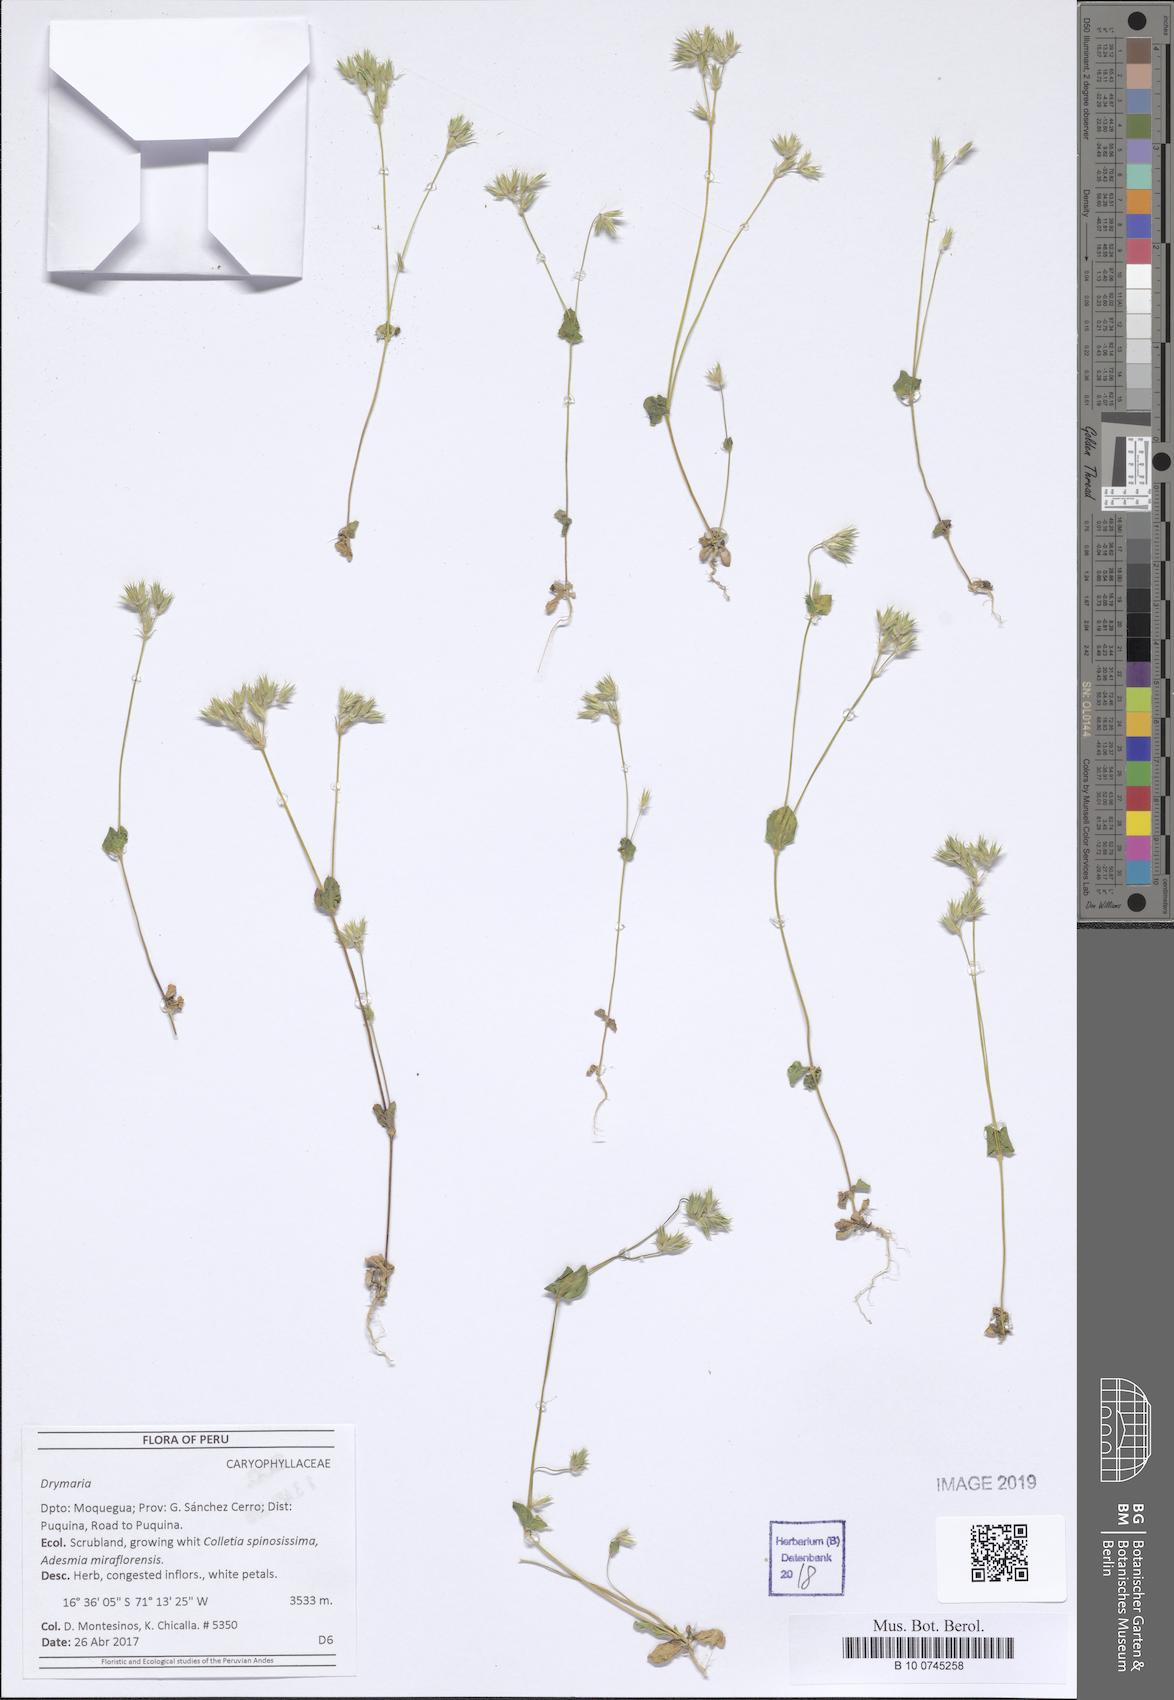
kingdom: Plantae
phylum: Tracheophyta
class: Magnoliopsida
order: Caryophyllales
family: Caryophyllaceae
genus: Drymaria
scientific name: Drymaria
